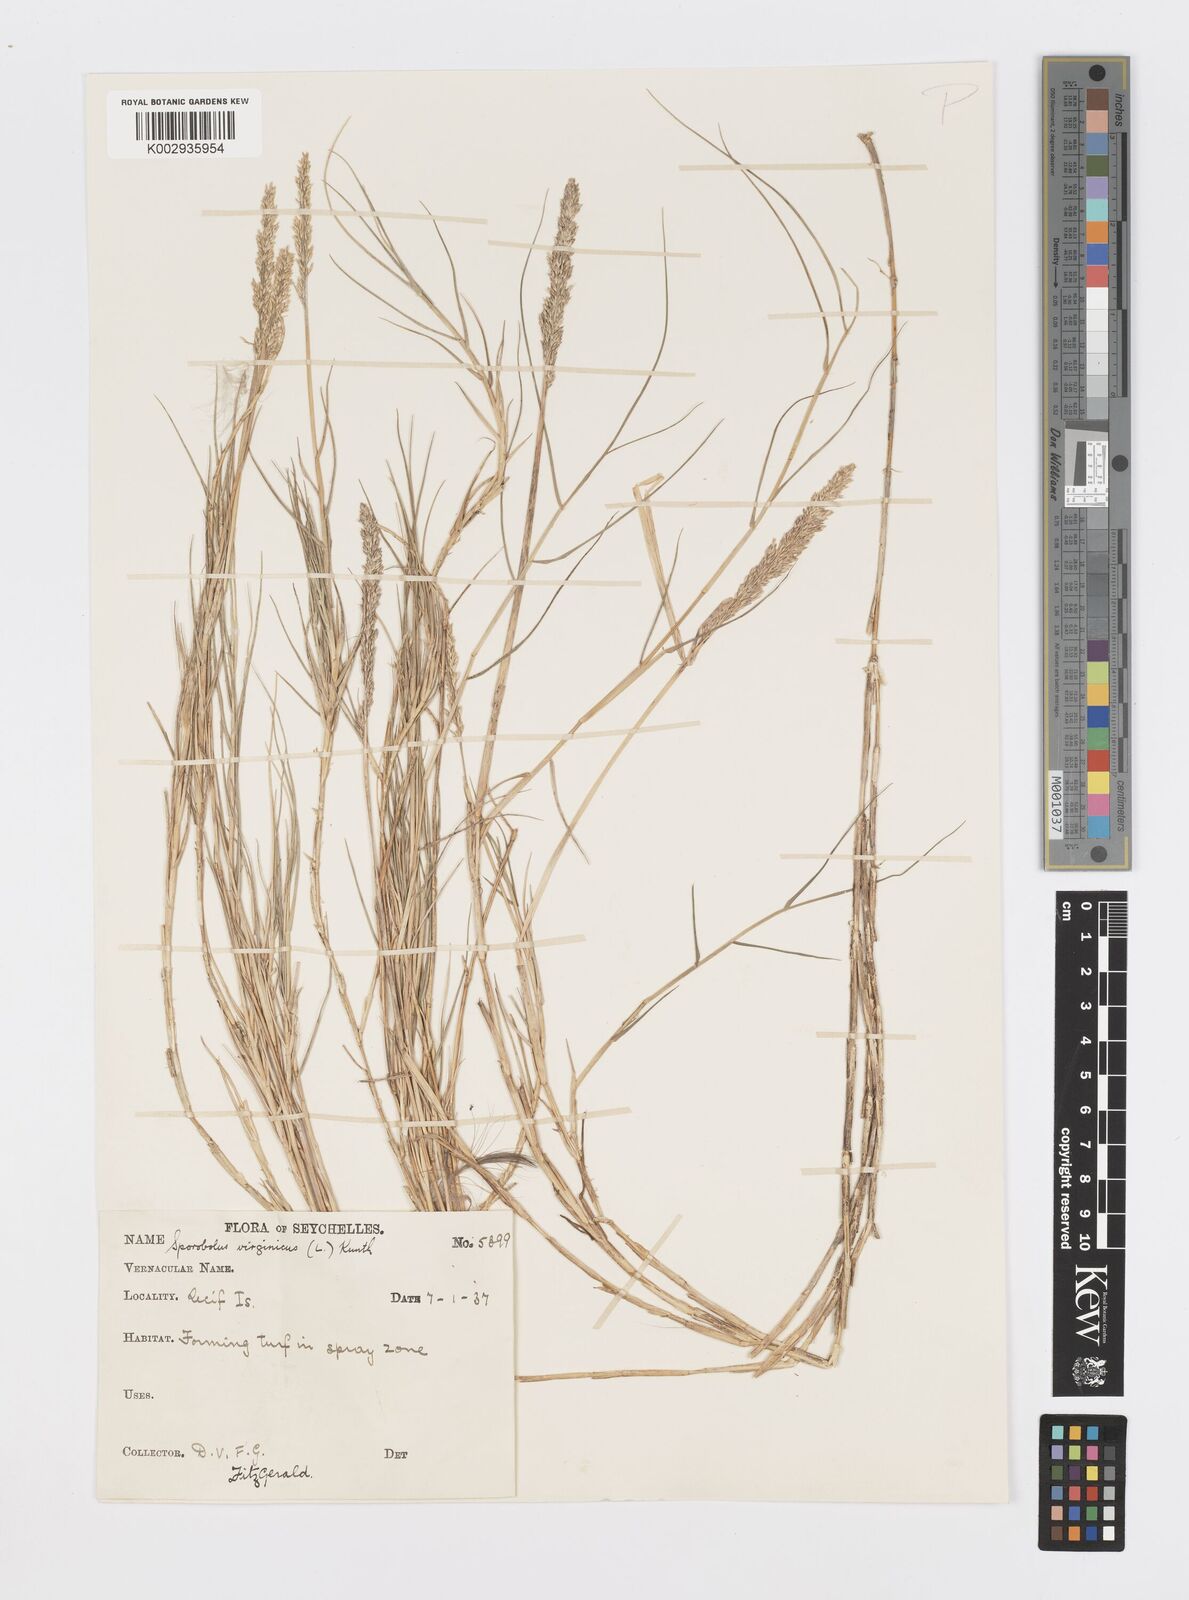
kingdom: Plantae
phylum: Tracheophyta
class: Liliopsida
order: Poales
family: Poaceae
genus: Sporobolus
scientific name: Sporobolus virginicus
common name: Beach dropseed
